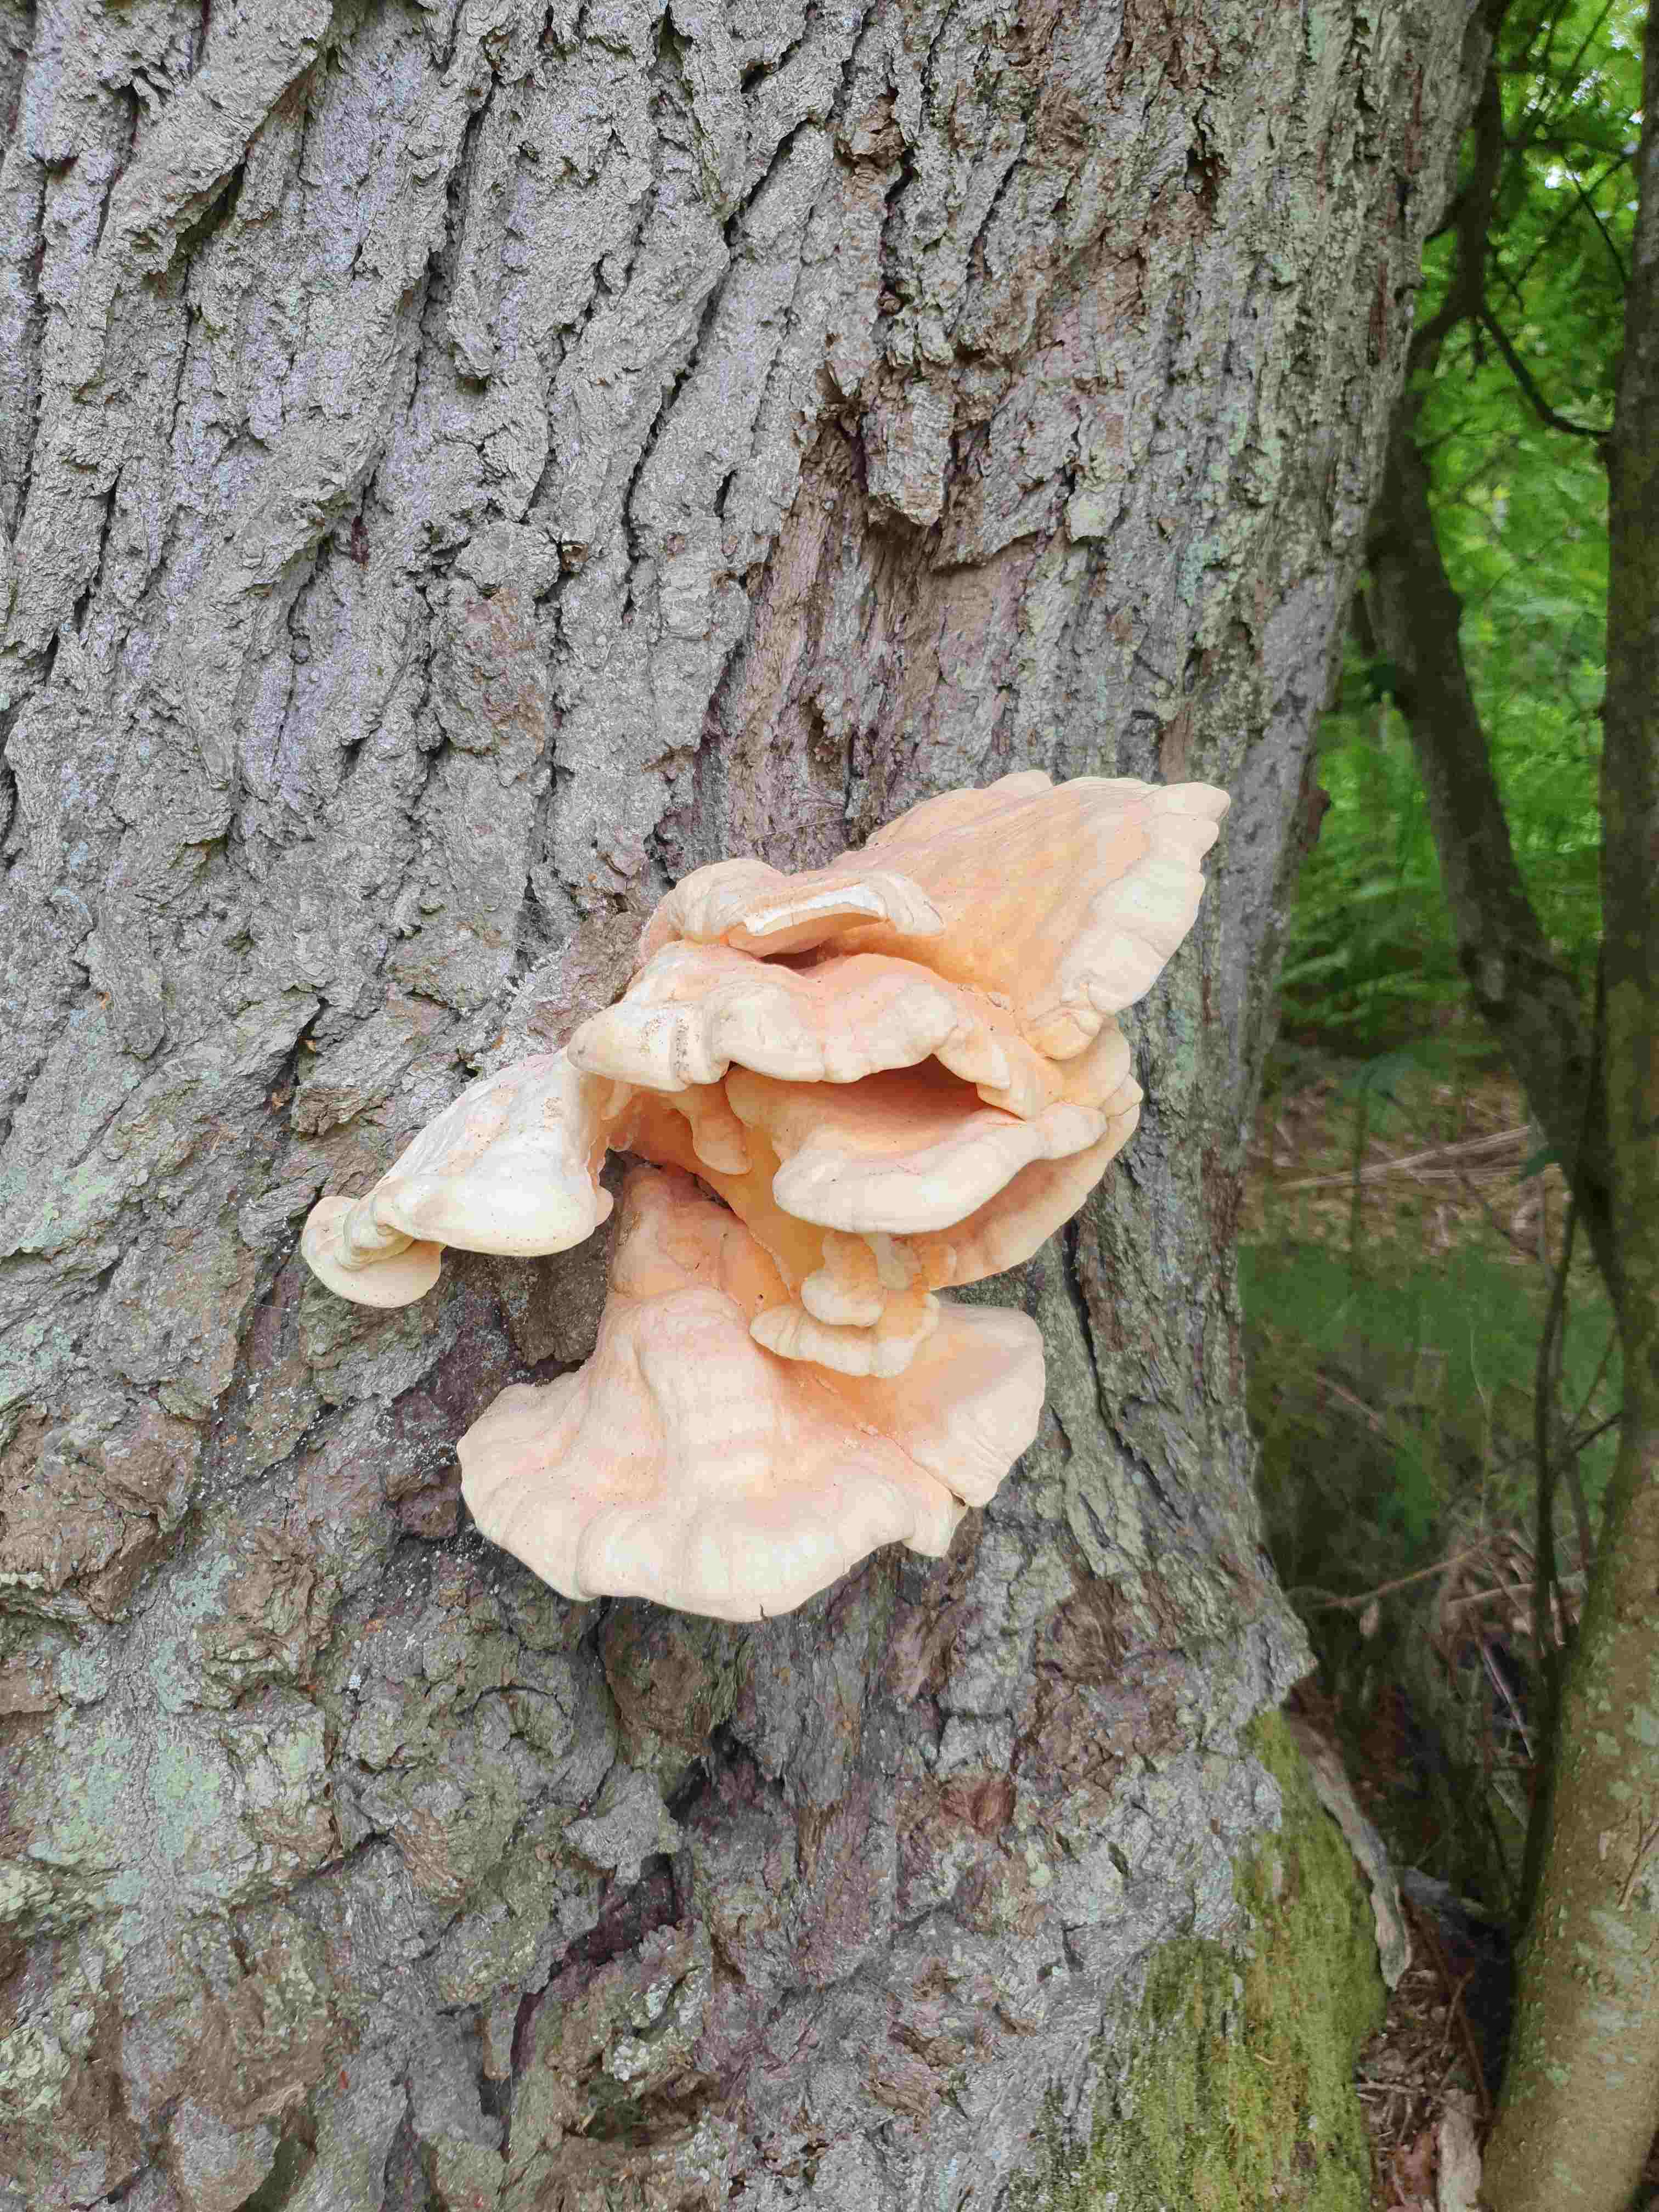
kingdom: Fungi
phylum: Basidiomycota
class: Agaricomycetes
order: Polyporales
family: Laetiporaceae
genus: Laetiporus
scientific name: Laetiporus sulphureus
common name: svovlporesvamp
